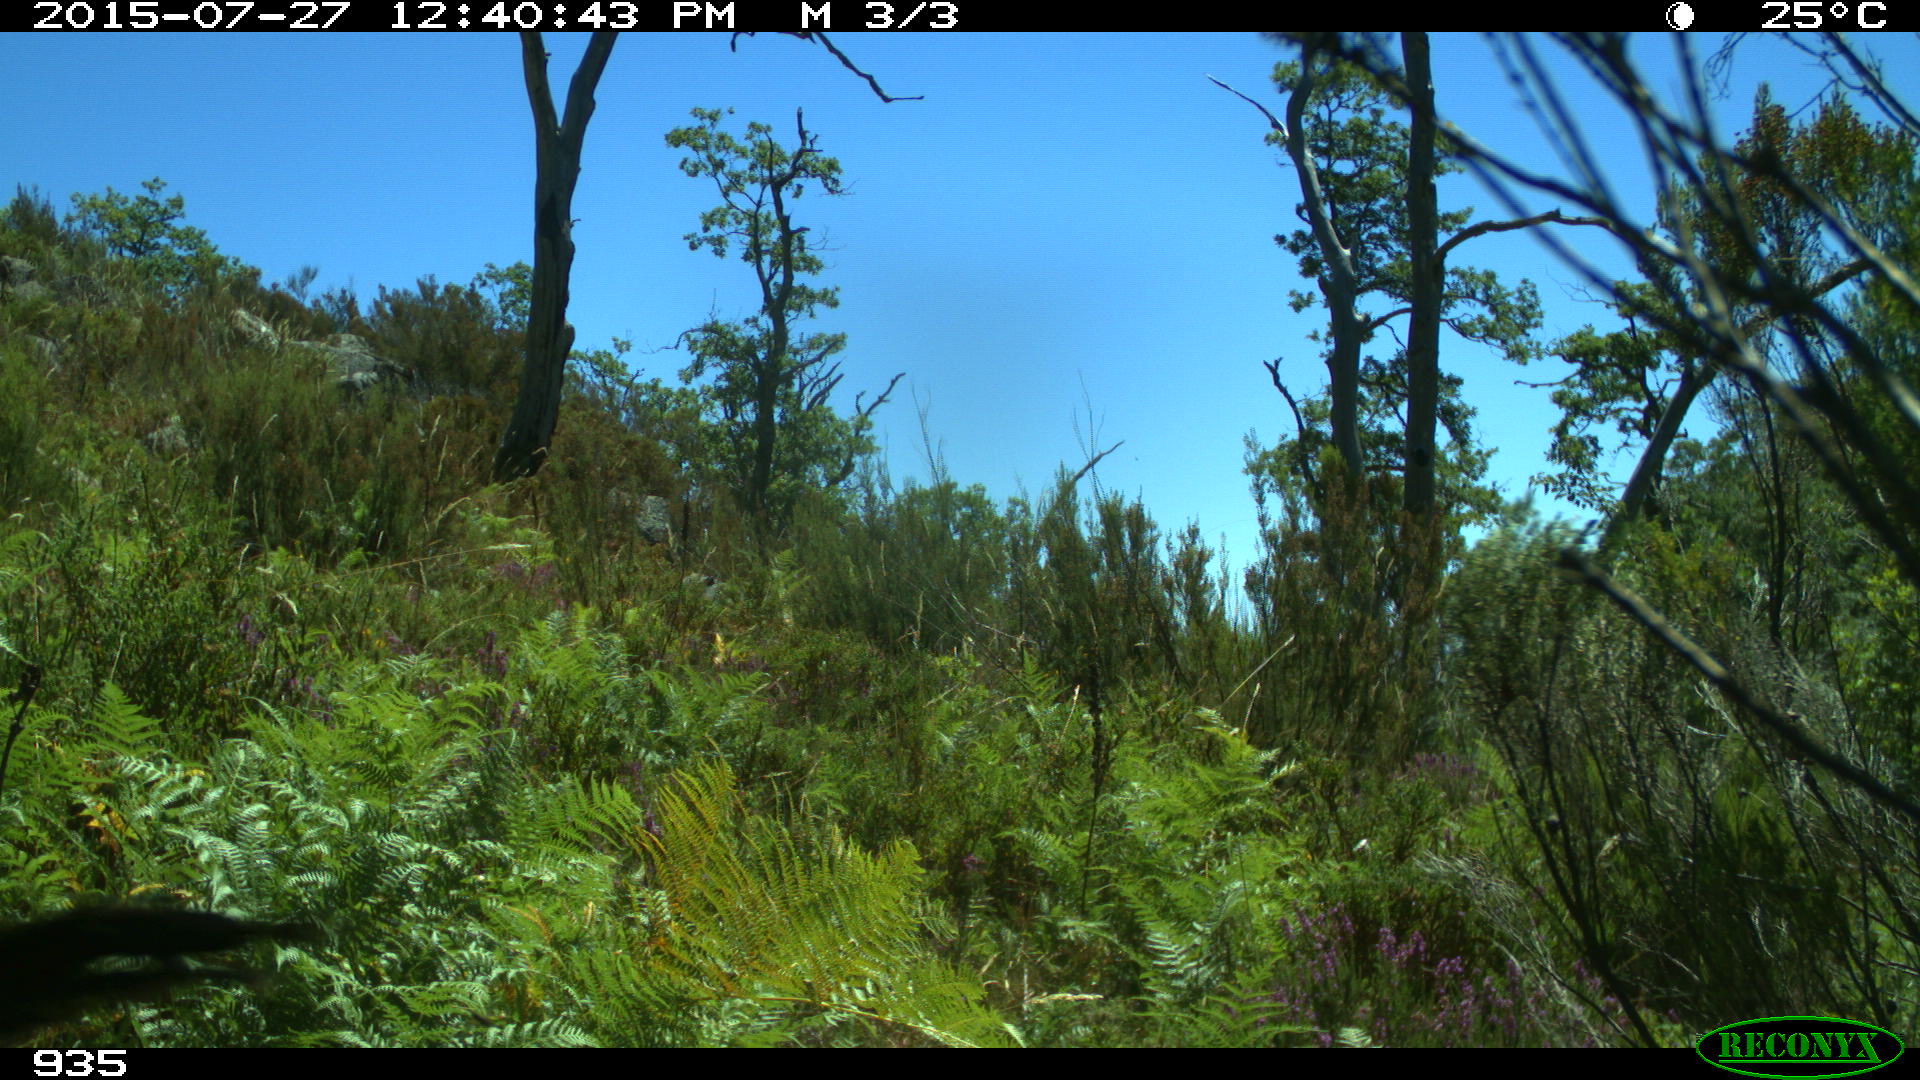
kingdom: Animalia
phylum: Chordata
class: Mammalia
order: Artiodactyla
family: Bovidae
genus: Bos
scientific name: Bos taurus
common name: Domesticated cattle
